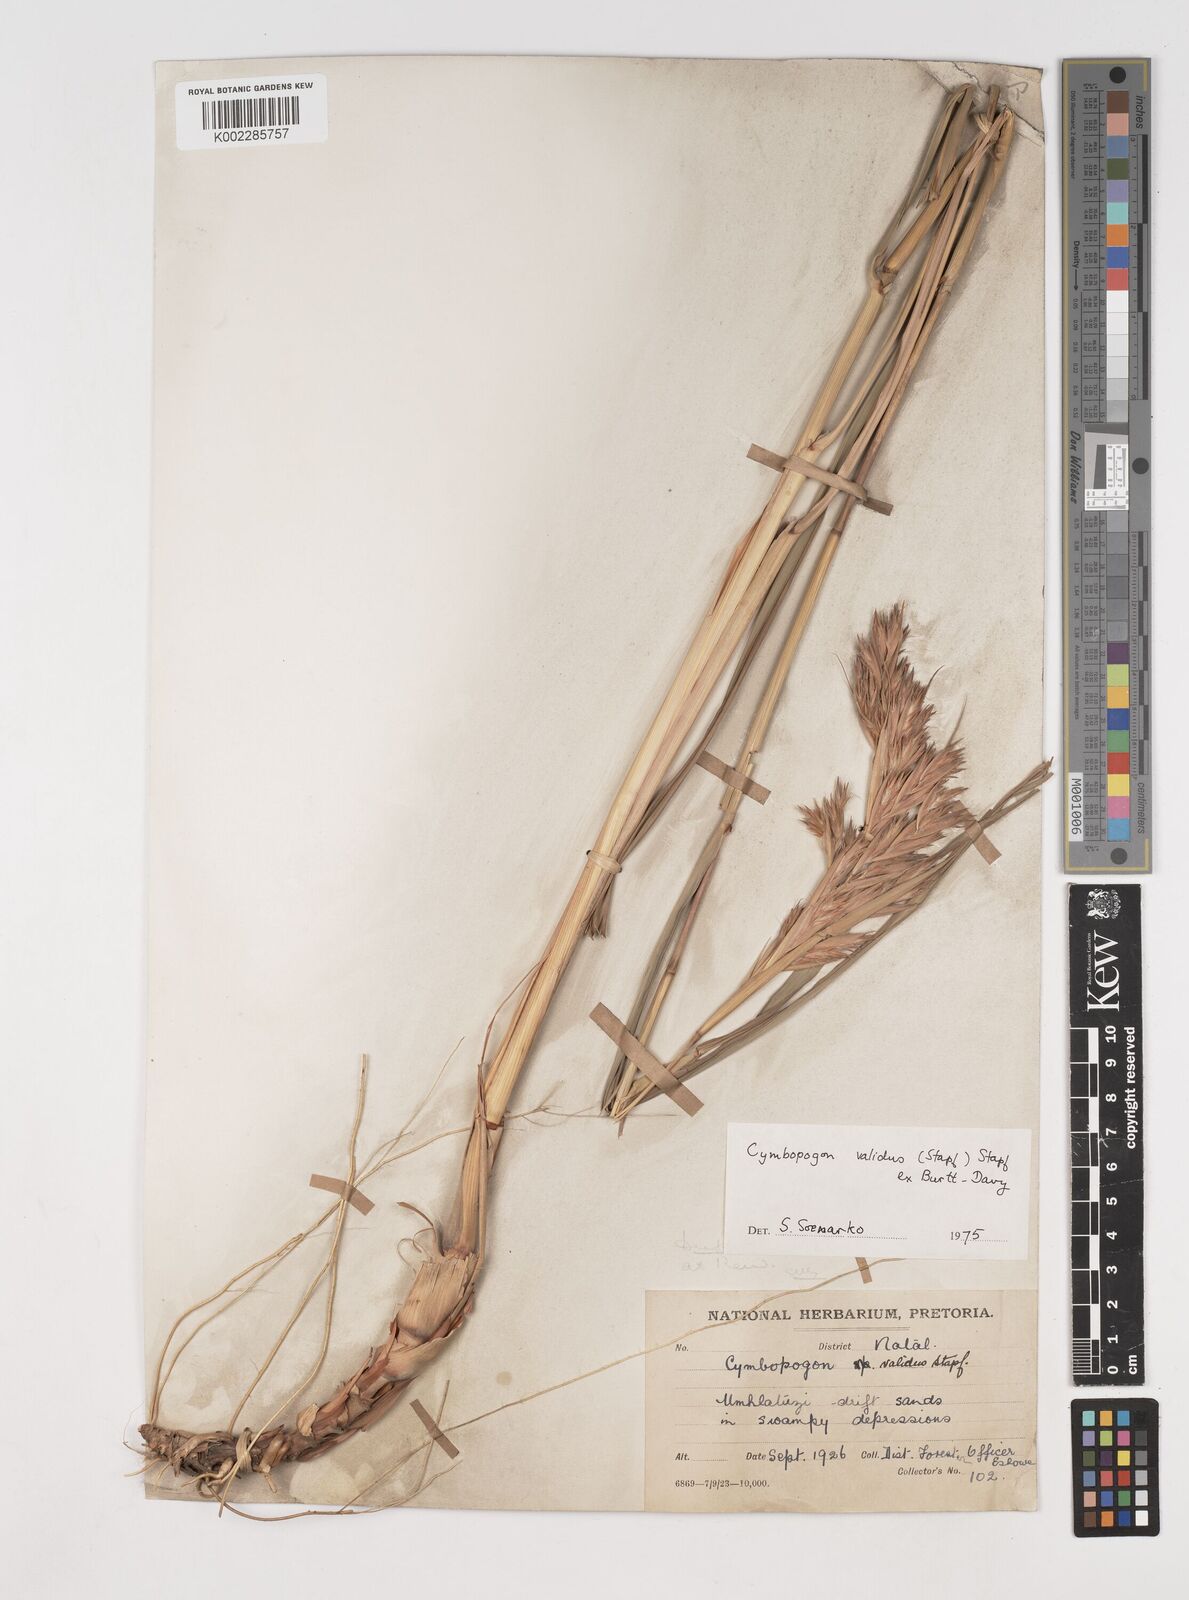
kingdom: Plantae
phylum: Tracheophyta
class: Liliopsida
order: Poales
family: Poaceae
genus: Cymbopogon
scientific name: Cymbopogon nardus
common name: Giant turpentine grass
